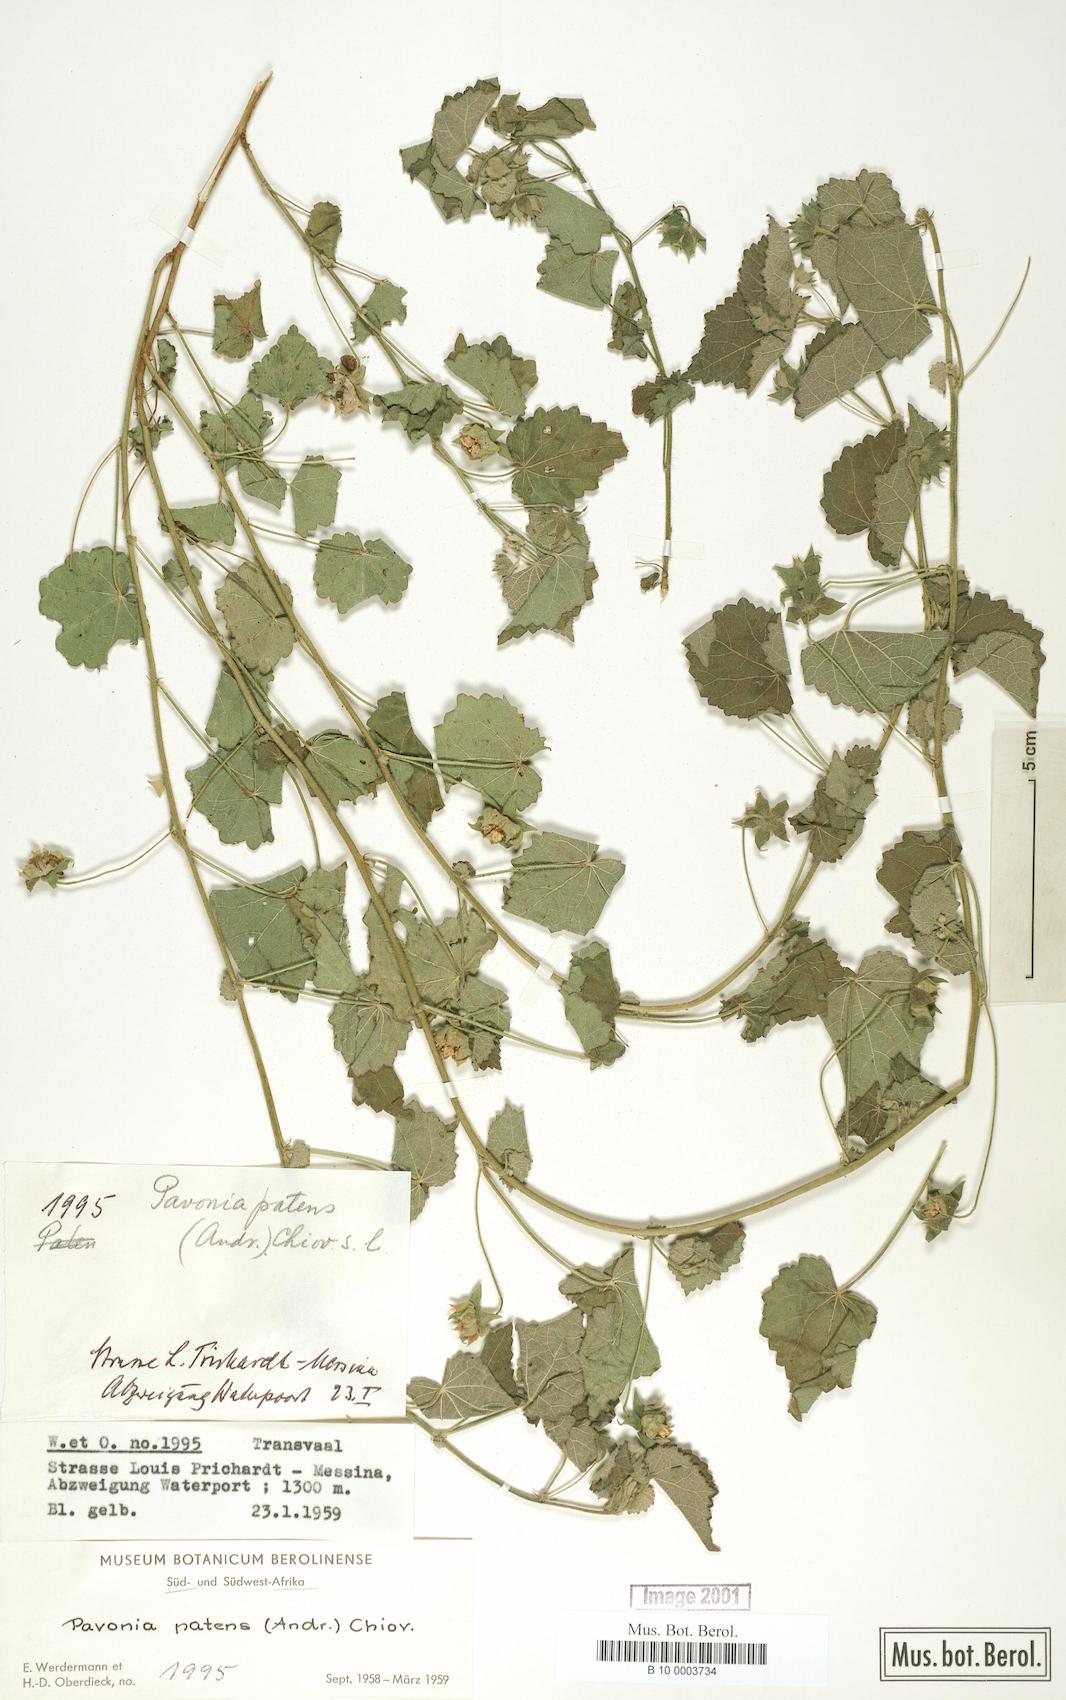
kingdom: Plantae
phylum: Tracheophyta
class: Magnoliopsida
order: Malvales
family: Malvaceae
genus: Abutilon
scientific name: Abutilon mauritianum
